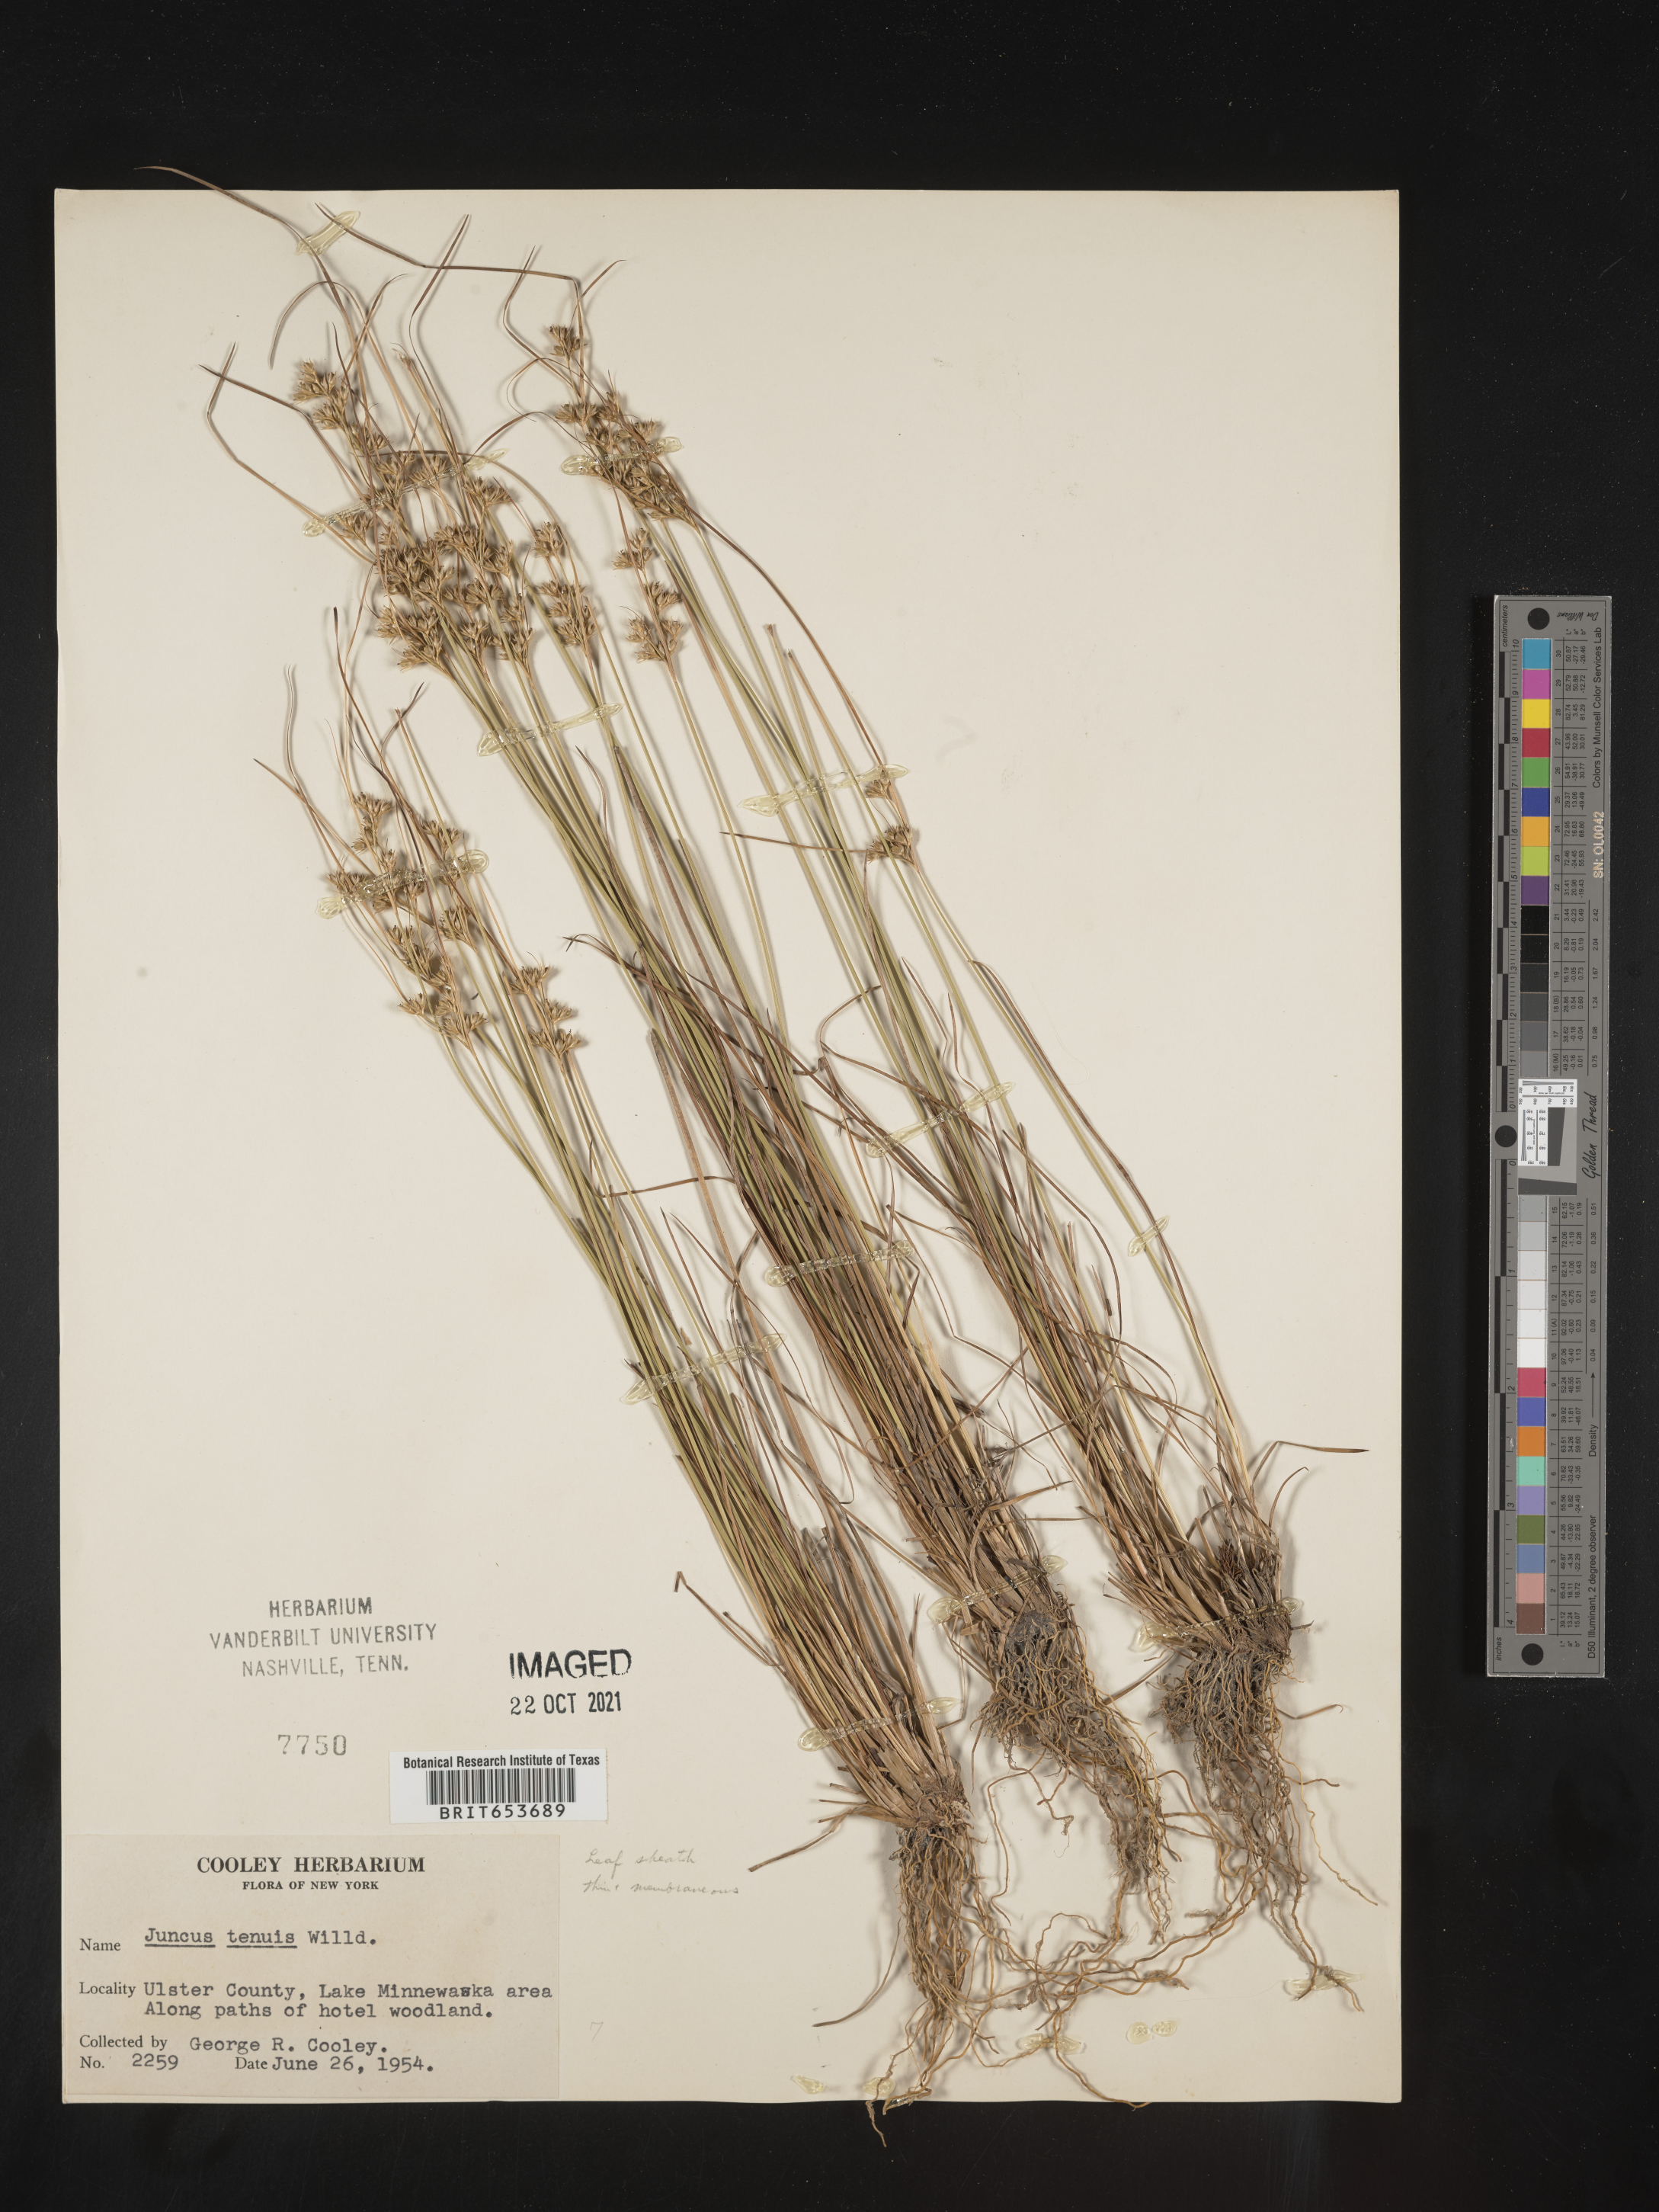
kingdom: Plantae
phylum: Tracheophyta
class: Liliopsida
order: Poales
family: Juncaceae
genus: Juncus
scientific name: Juncus tenuis
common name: Slender rush
